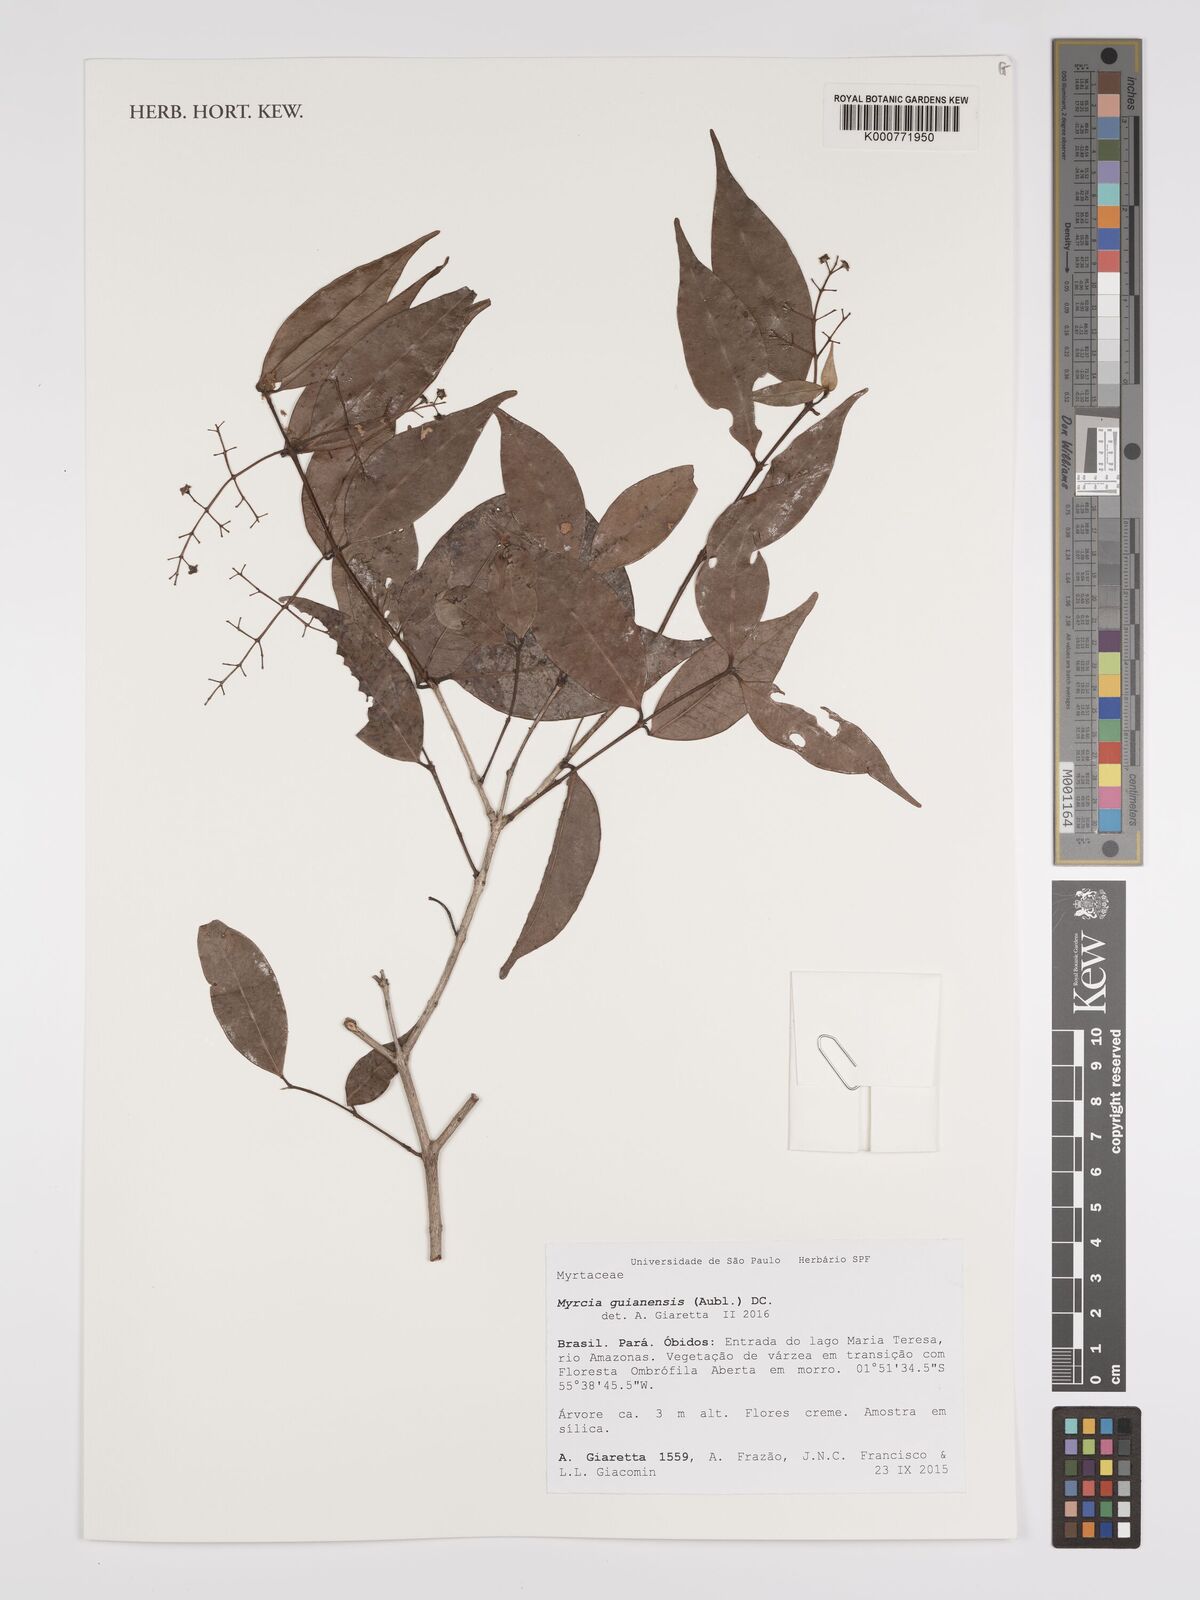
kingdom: Plantae
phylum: Tracheophyta
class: Magnoliopsida
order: Myrtales
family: Myrtaceae
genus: Myrcia
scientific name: Myrcia guianensis
